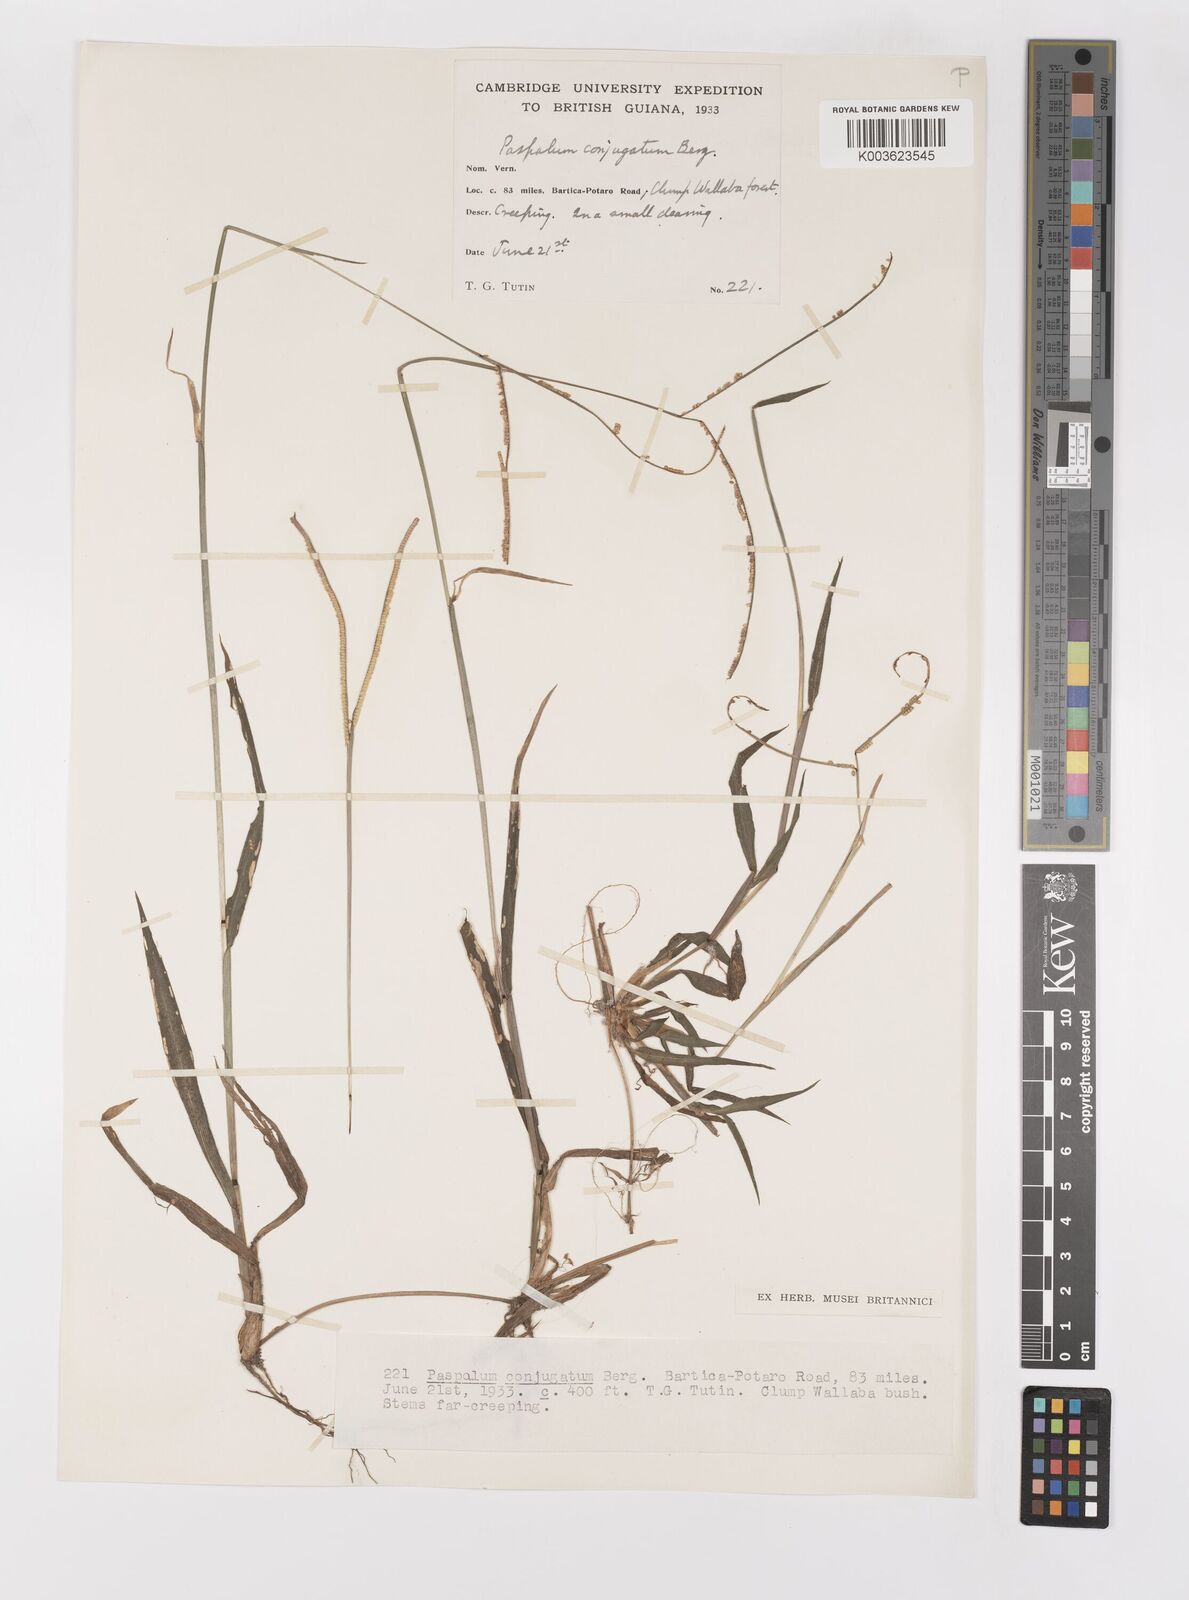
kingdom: Plantae
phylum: Tracheophyta
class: Liliopsida
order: Poales
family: Poaceae
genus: Paspalum
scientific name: Paspalum conjugatum
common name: Hilograss
